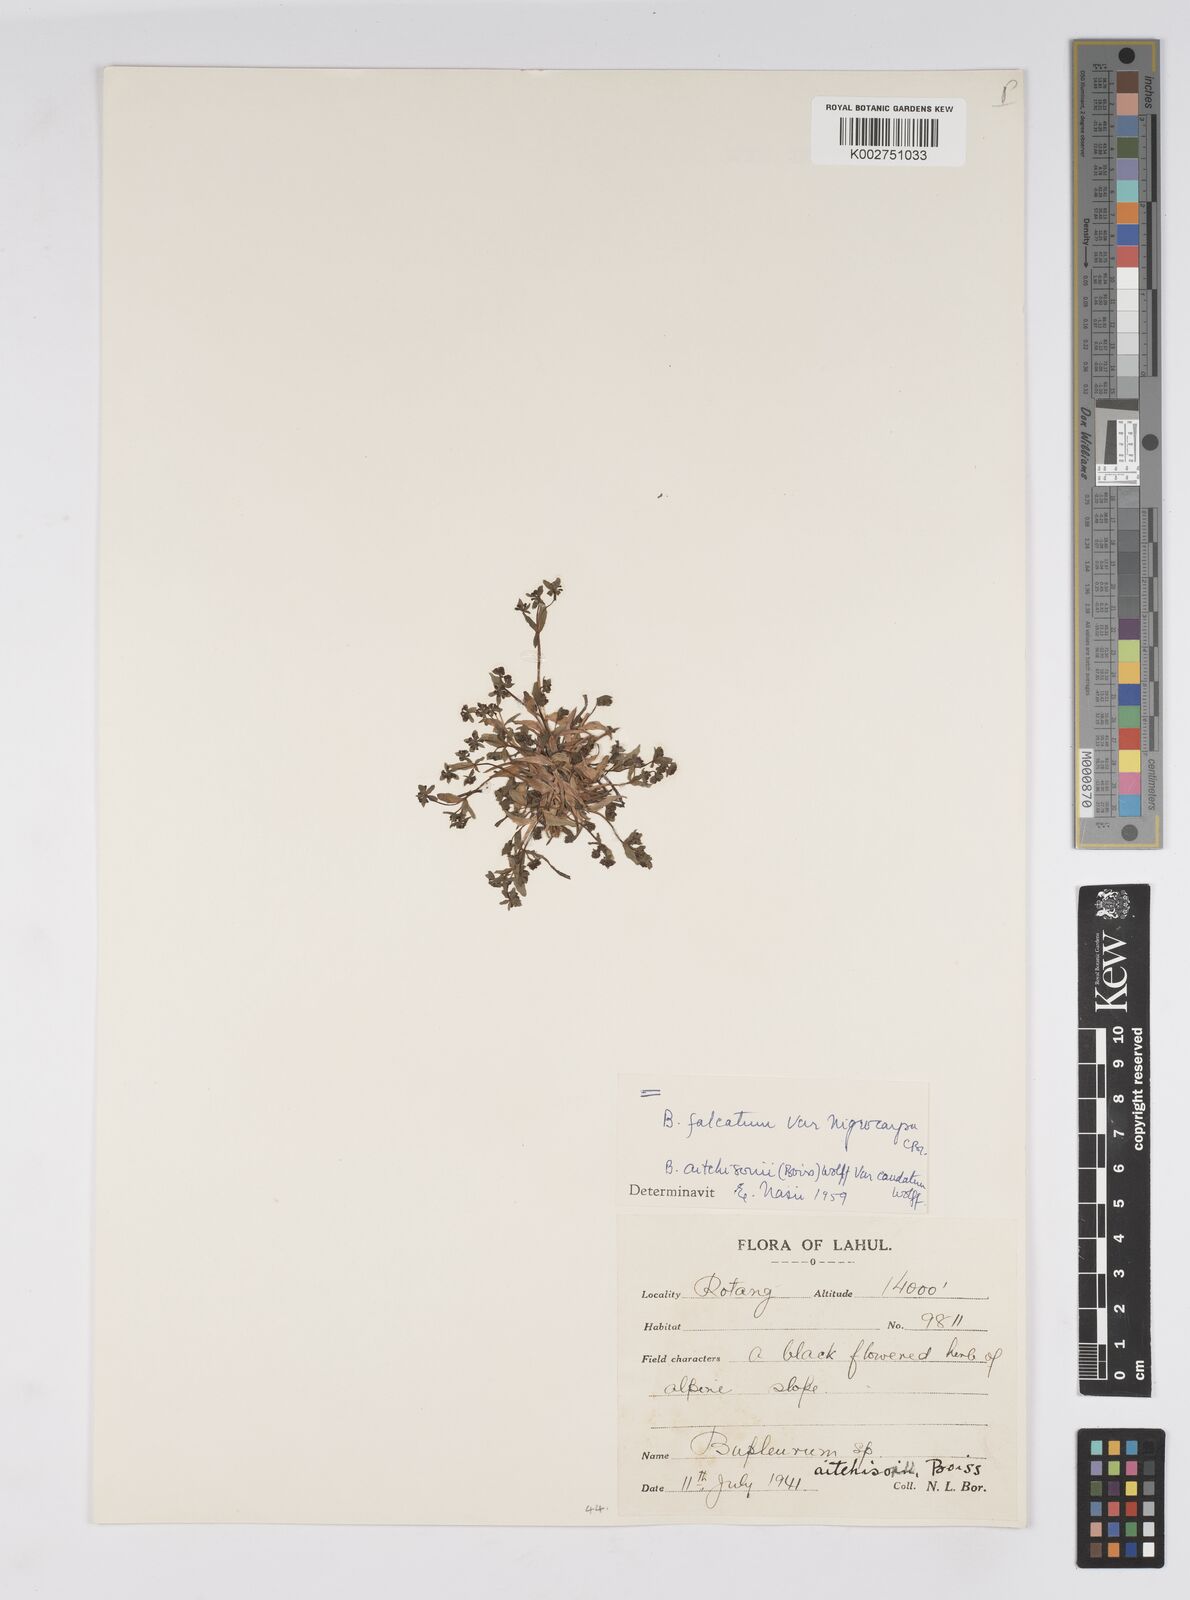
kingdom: Plantae
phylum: Tracheophyta
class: Magnoliopsida
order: Apiales
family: Apiaceae
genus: Bupleurum
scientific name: Bupleurum falcatum
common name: Sickle-leaved hare's-ear
